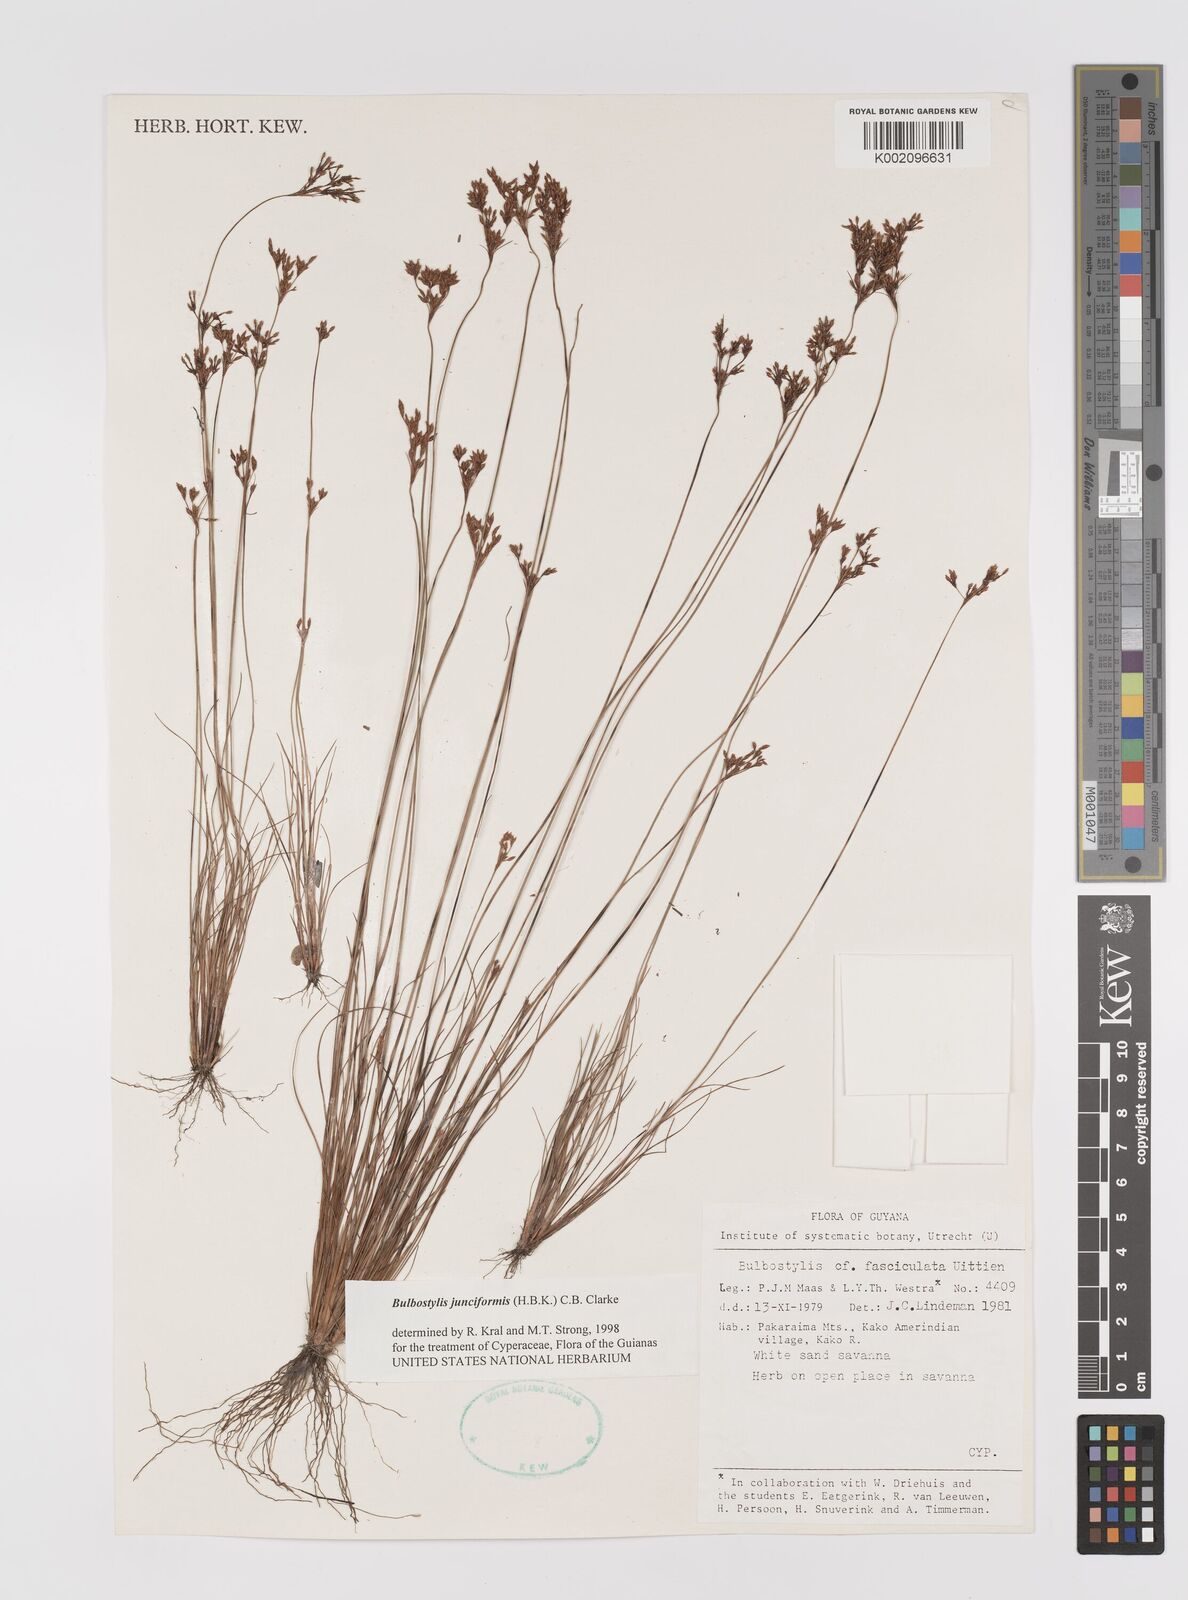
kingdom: Plantae
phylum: Tracheophyta
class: Liliopsida
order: Poales
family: Cyperaceae
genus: Bulbostylis
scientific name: Bulbostylis junciformis
